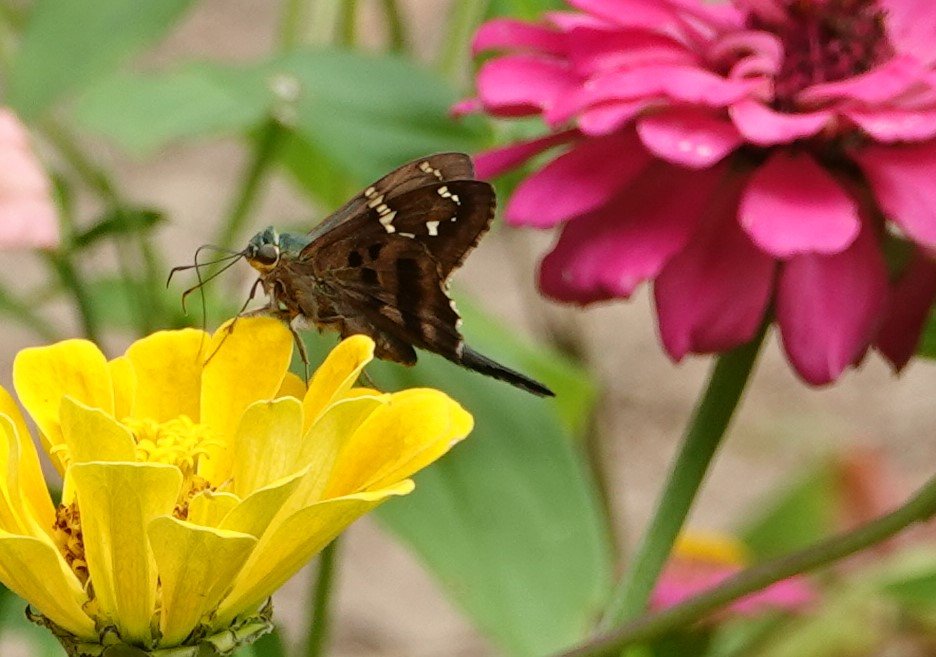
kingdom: Animalia
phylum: Arthropoda
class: Insecta
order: Lepidoptera
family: Hesperiidae
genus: Urbanus
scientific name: Urbanus proteus
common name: Long-tailed Skipper
